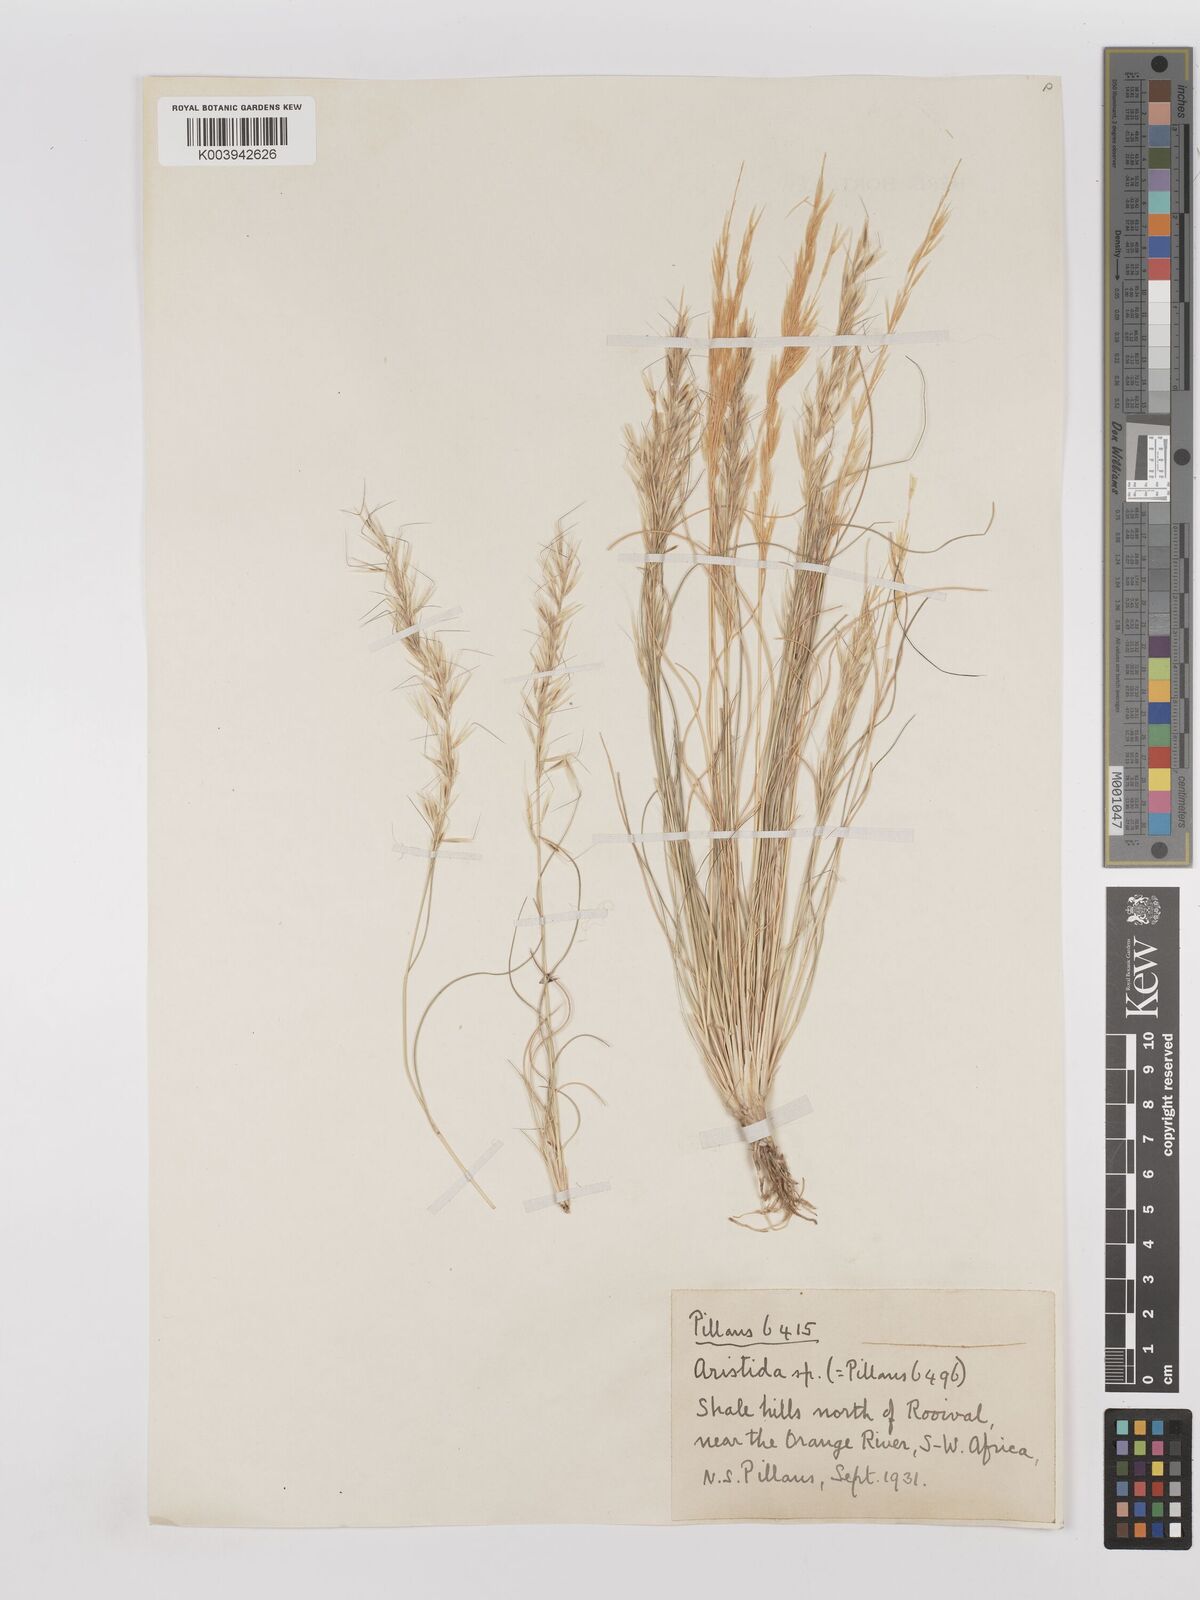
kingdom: Plantae
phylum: Tracheophyta
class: Liliopsida
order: Poales
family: Poaceae
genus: Stipagrostis
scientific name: Stipagrostis anomala
